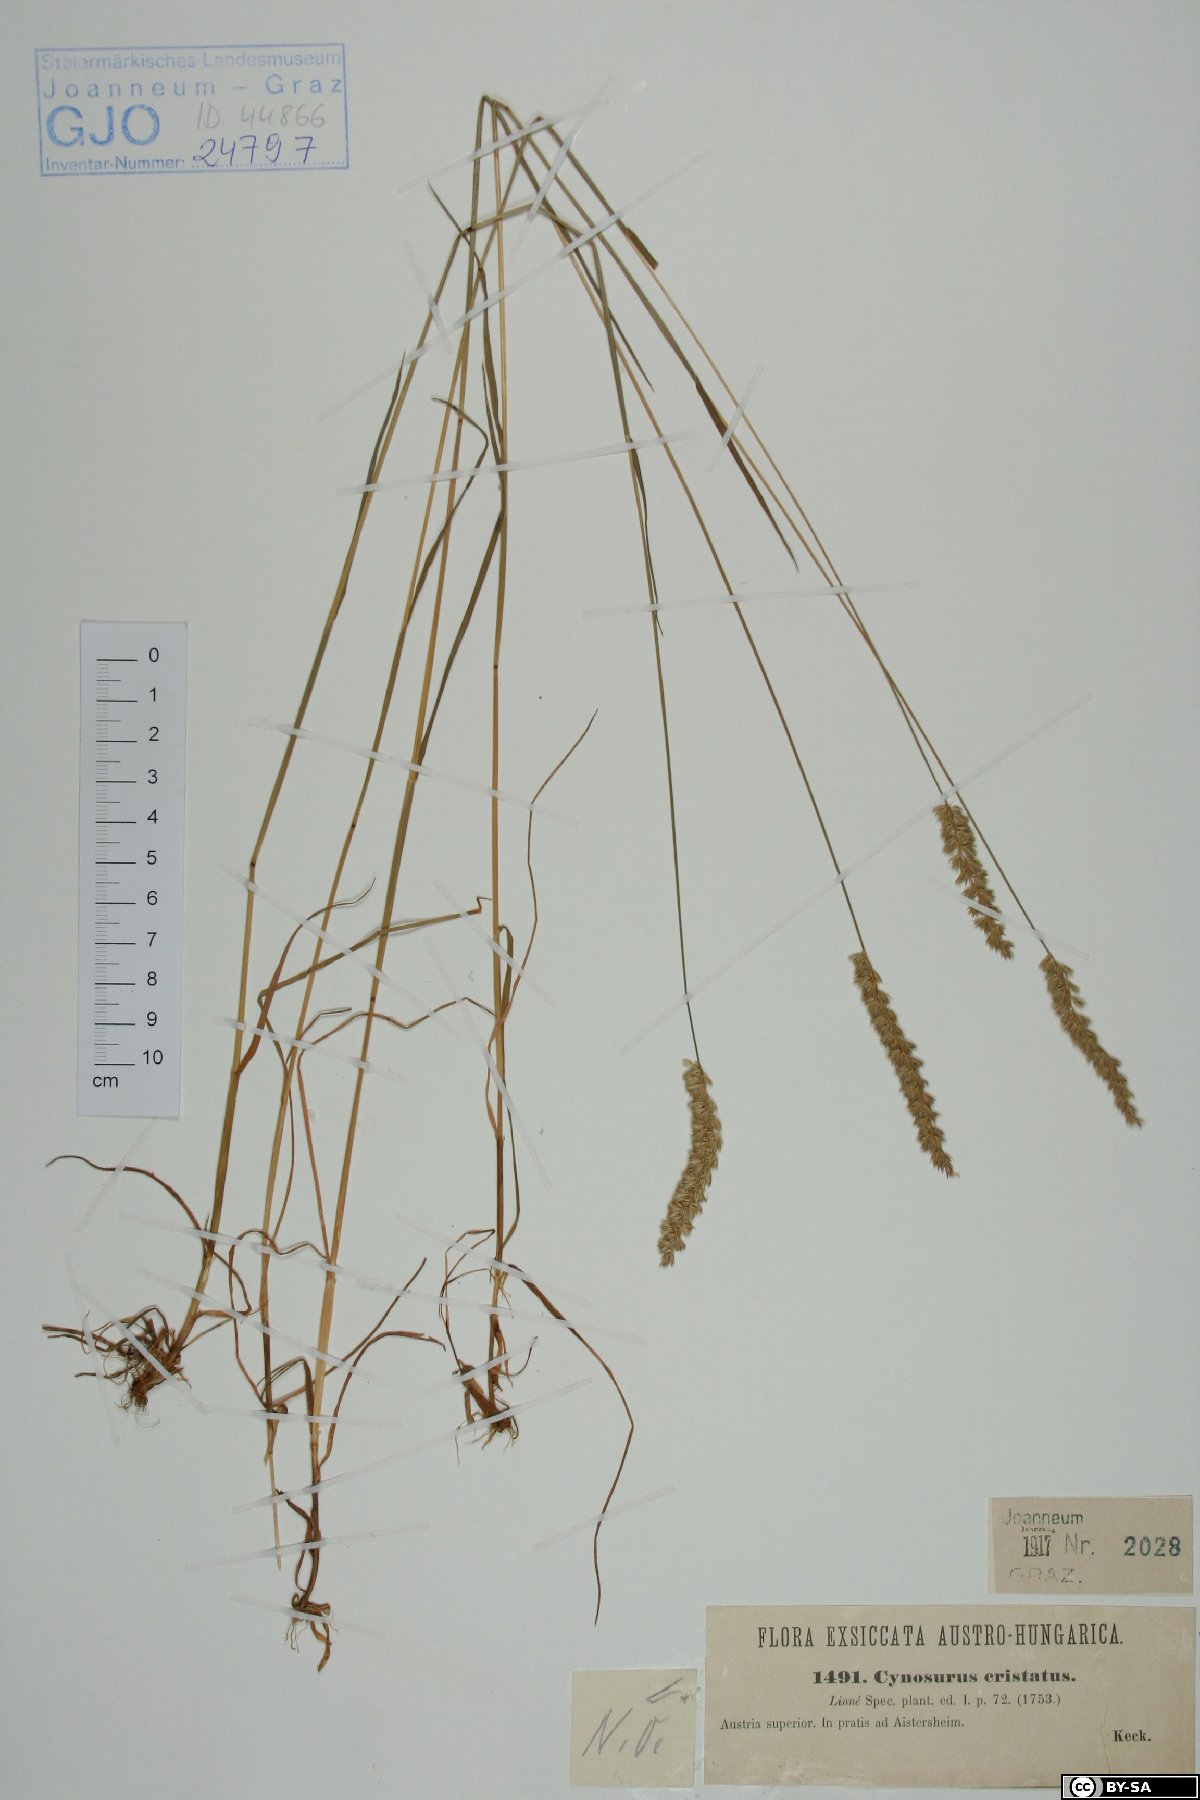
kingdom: Plantae
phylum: Tracheophyta
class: Liliopsida
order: Poales
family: Poaceae
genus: Cynosurus
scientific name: Cynosurus cristatus
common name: Crested dog's-tail
